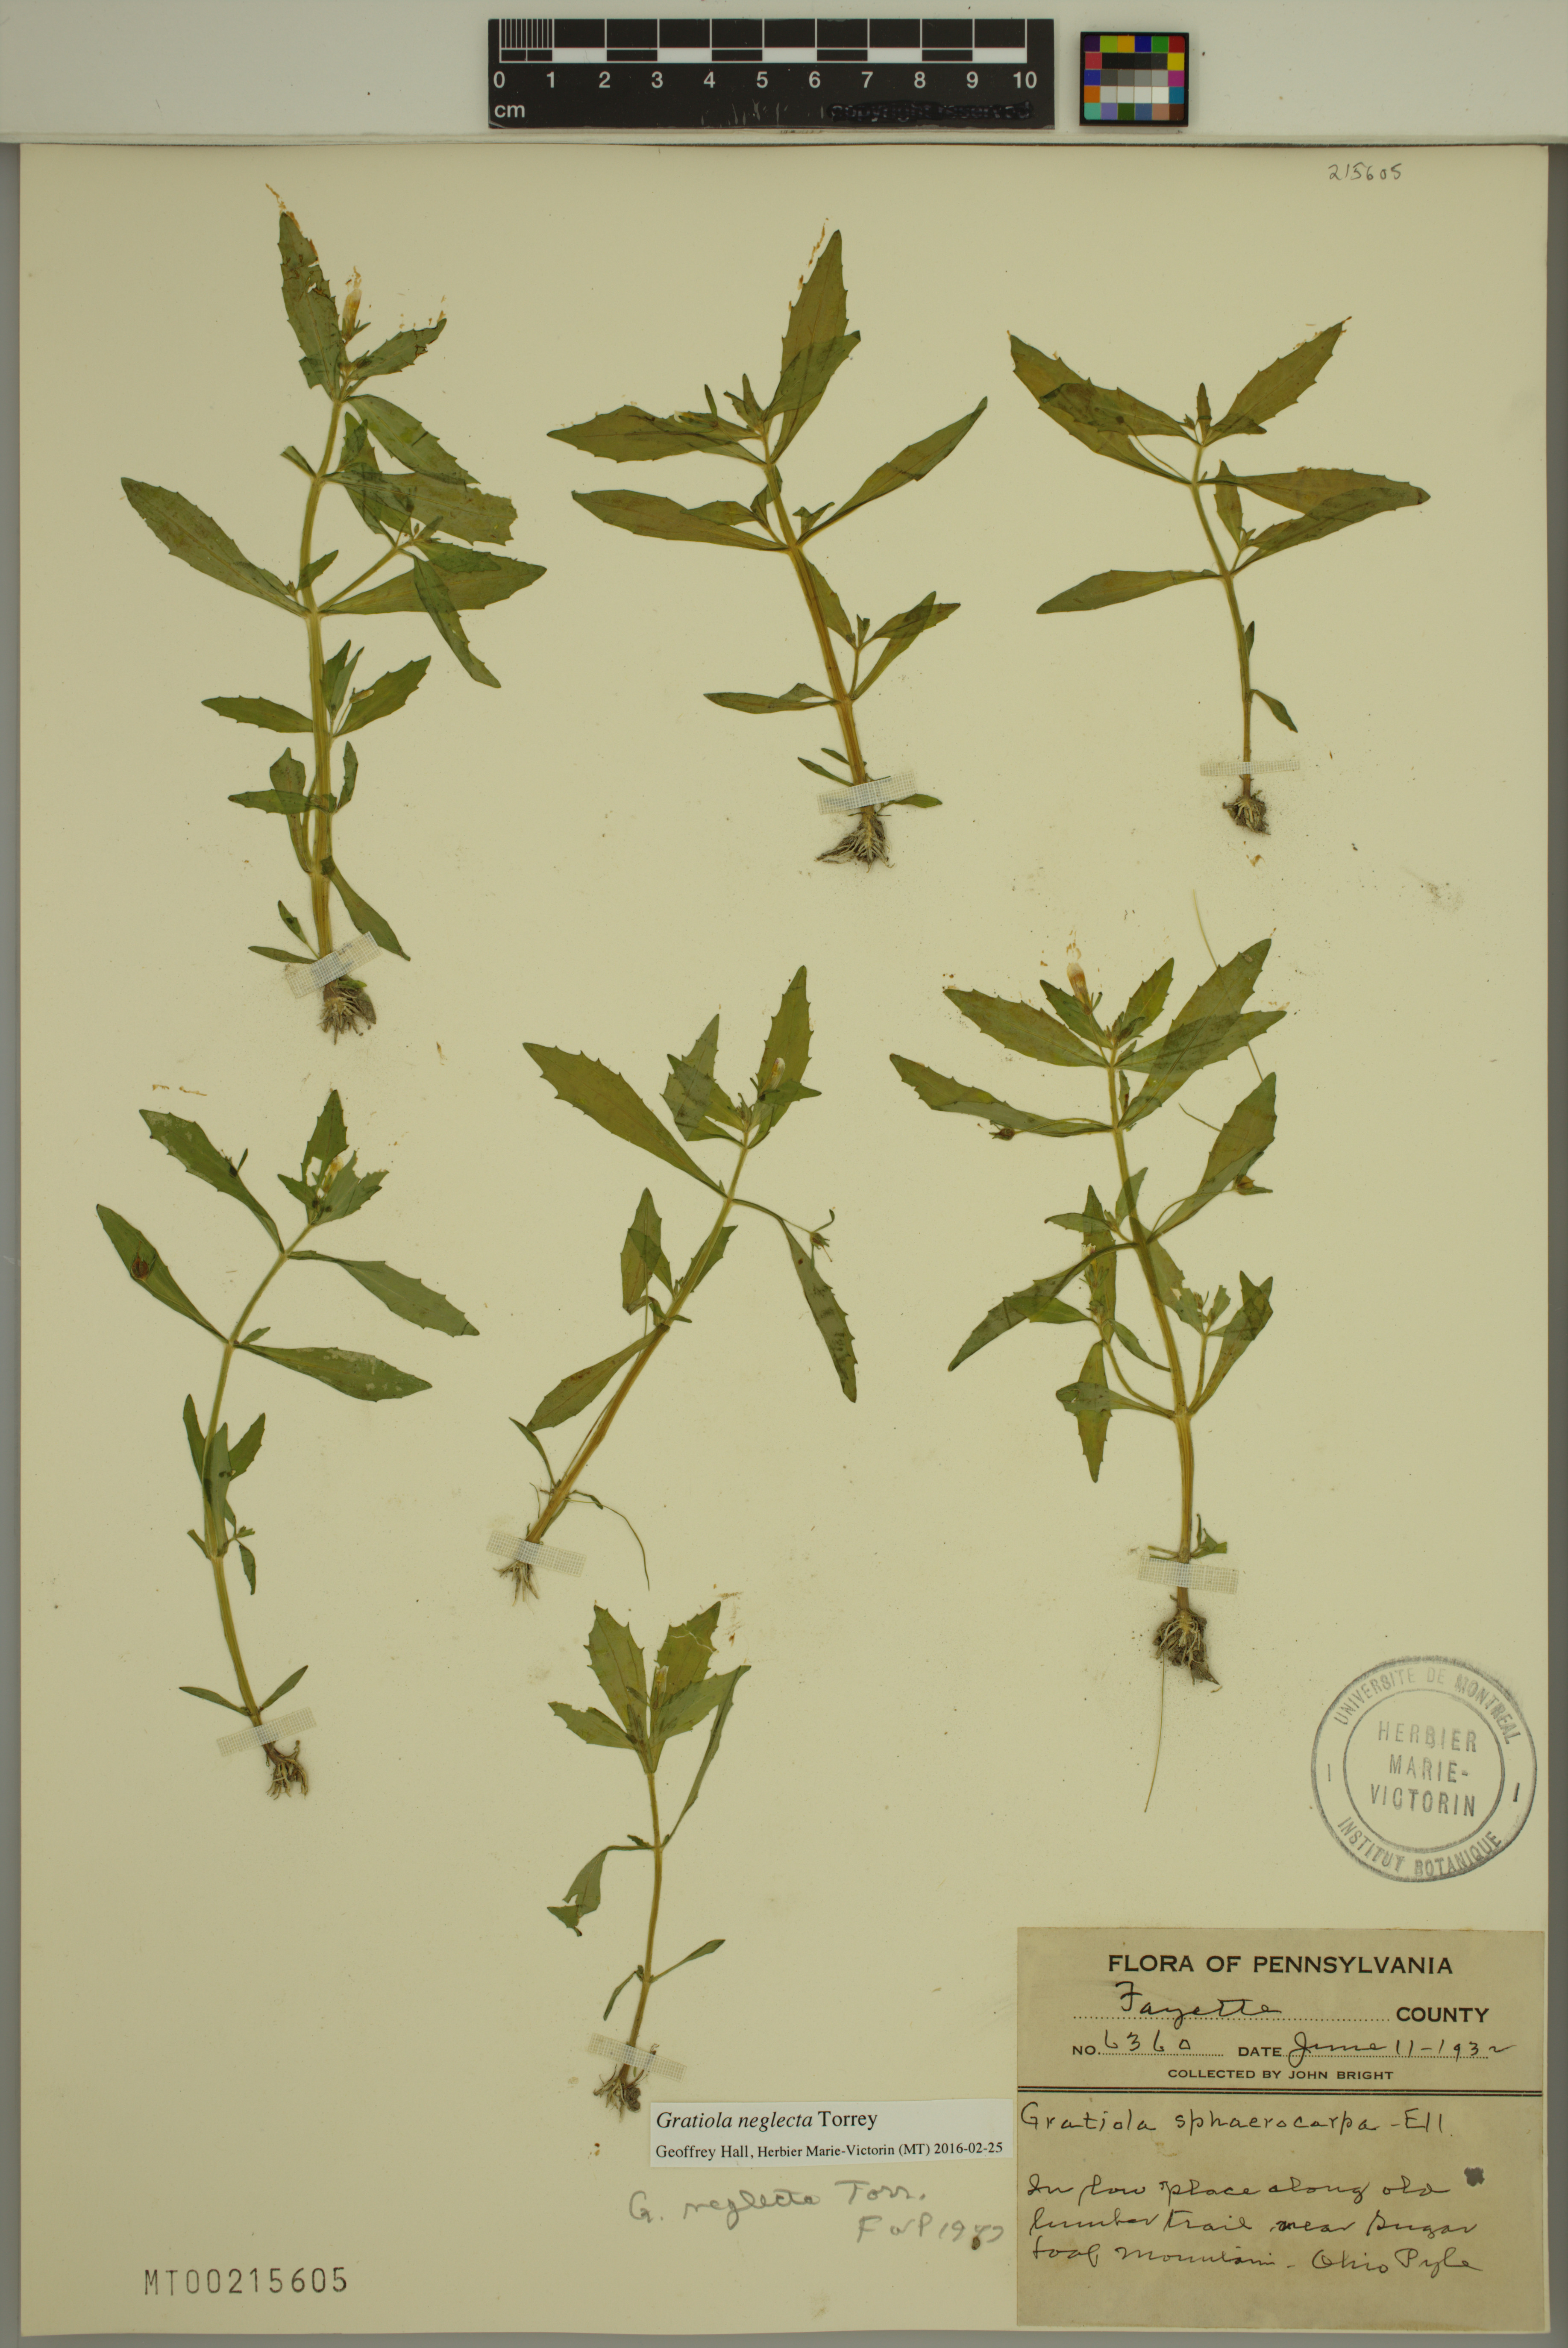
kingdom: Plantae
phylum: Tracheophyta
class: Magnoliopsida
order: Lamiales
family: Plantaginaceae
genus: Gratiola
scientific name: Gratiola neglecta
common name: American hedge-hyssop
